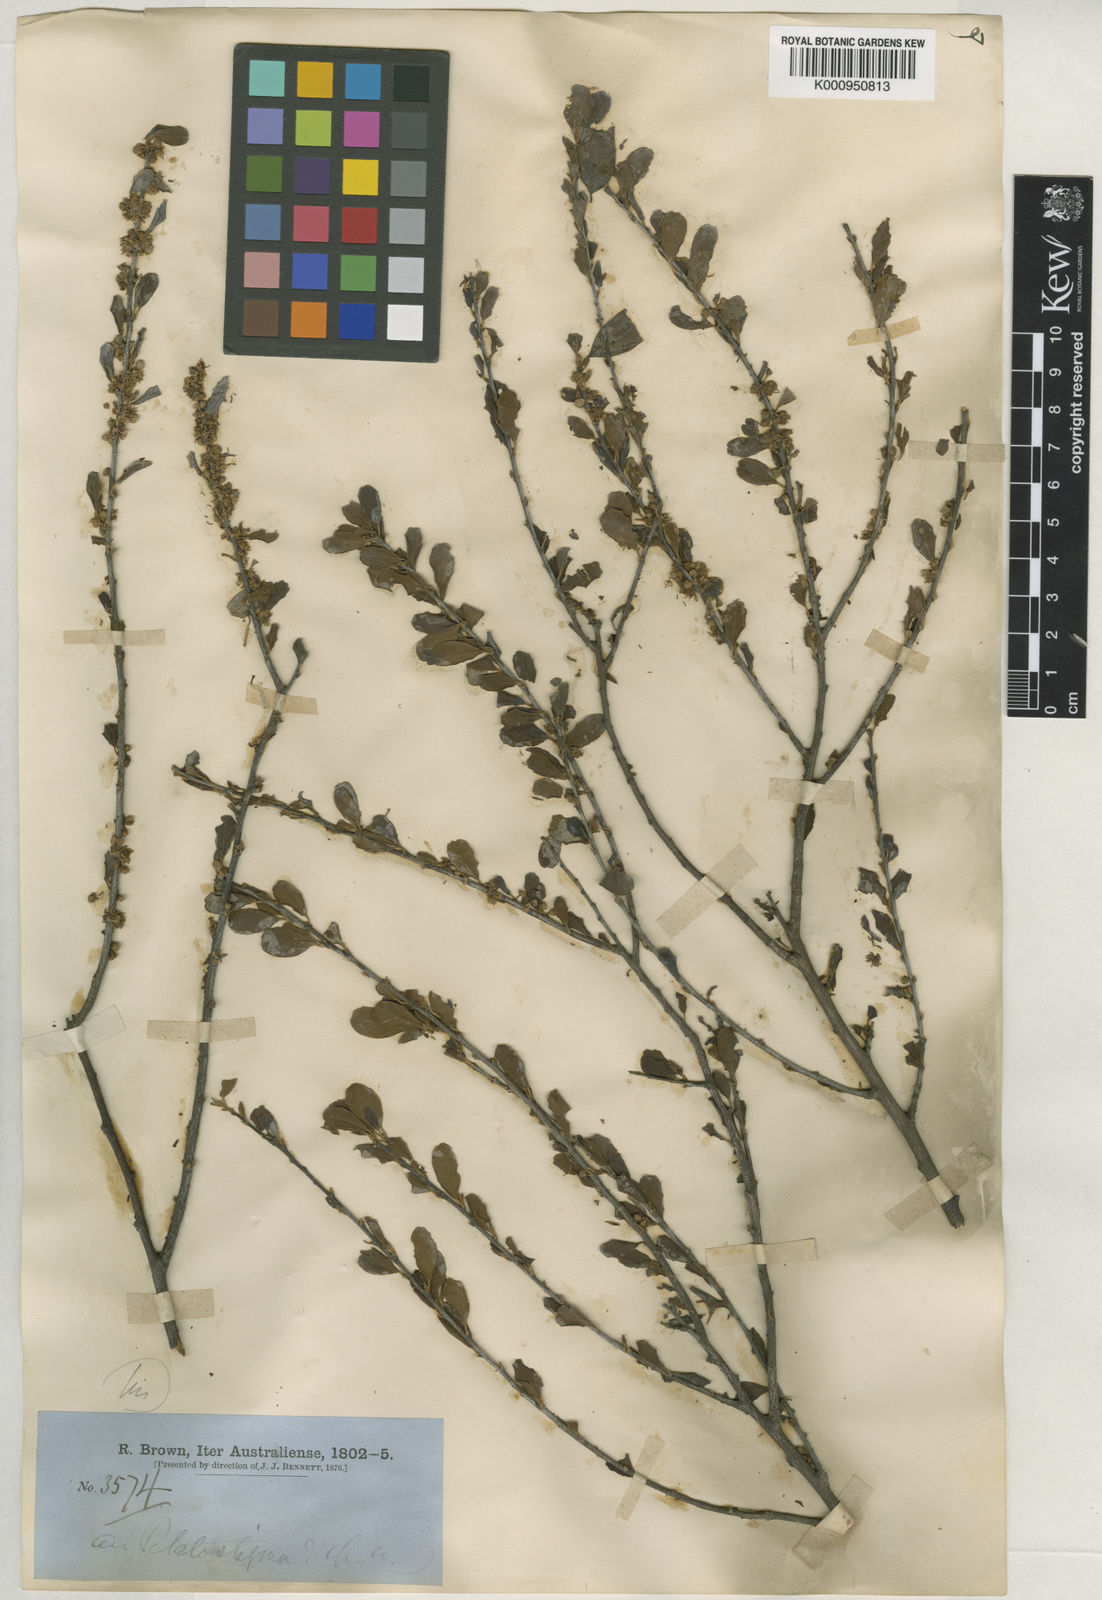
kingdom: Plantae
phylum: Tracheophyta
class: Magnoliopsida
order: Malpighiales
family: Picrodendraceae
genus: Petalostigma
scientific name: Petalostigma banksii
